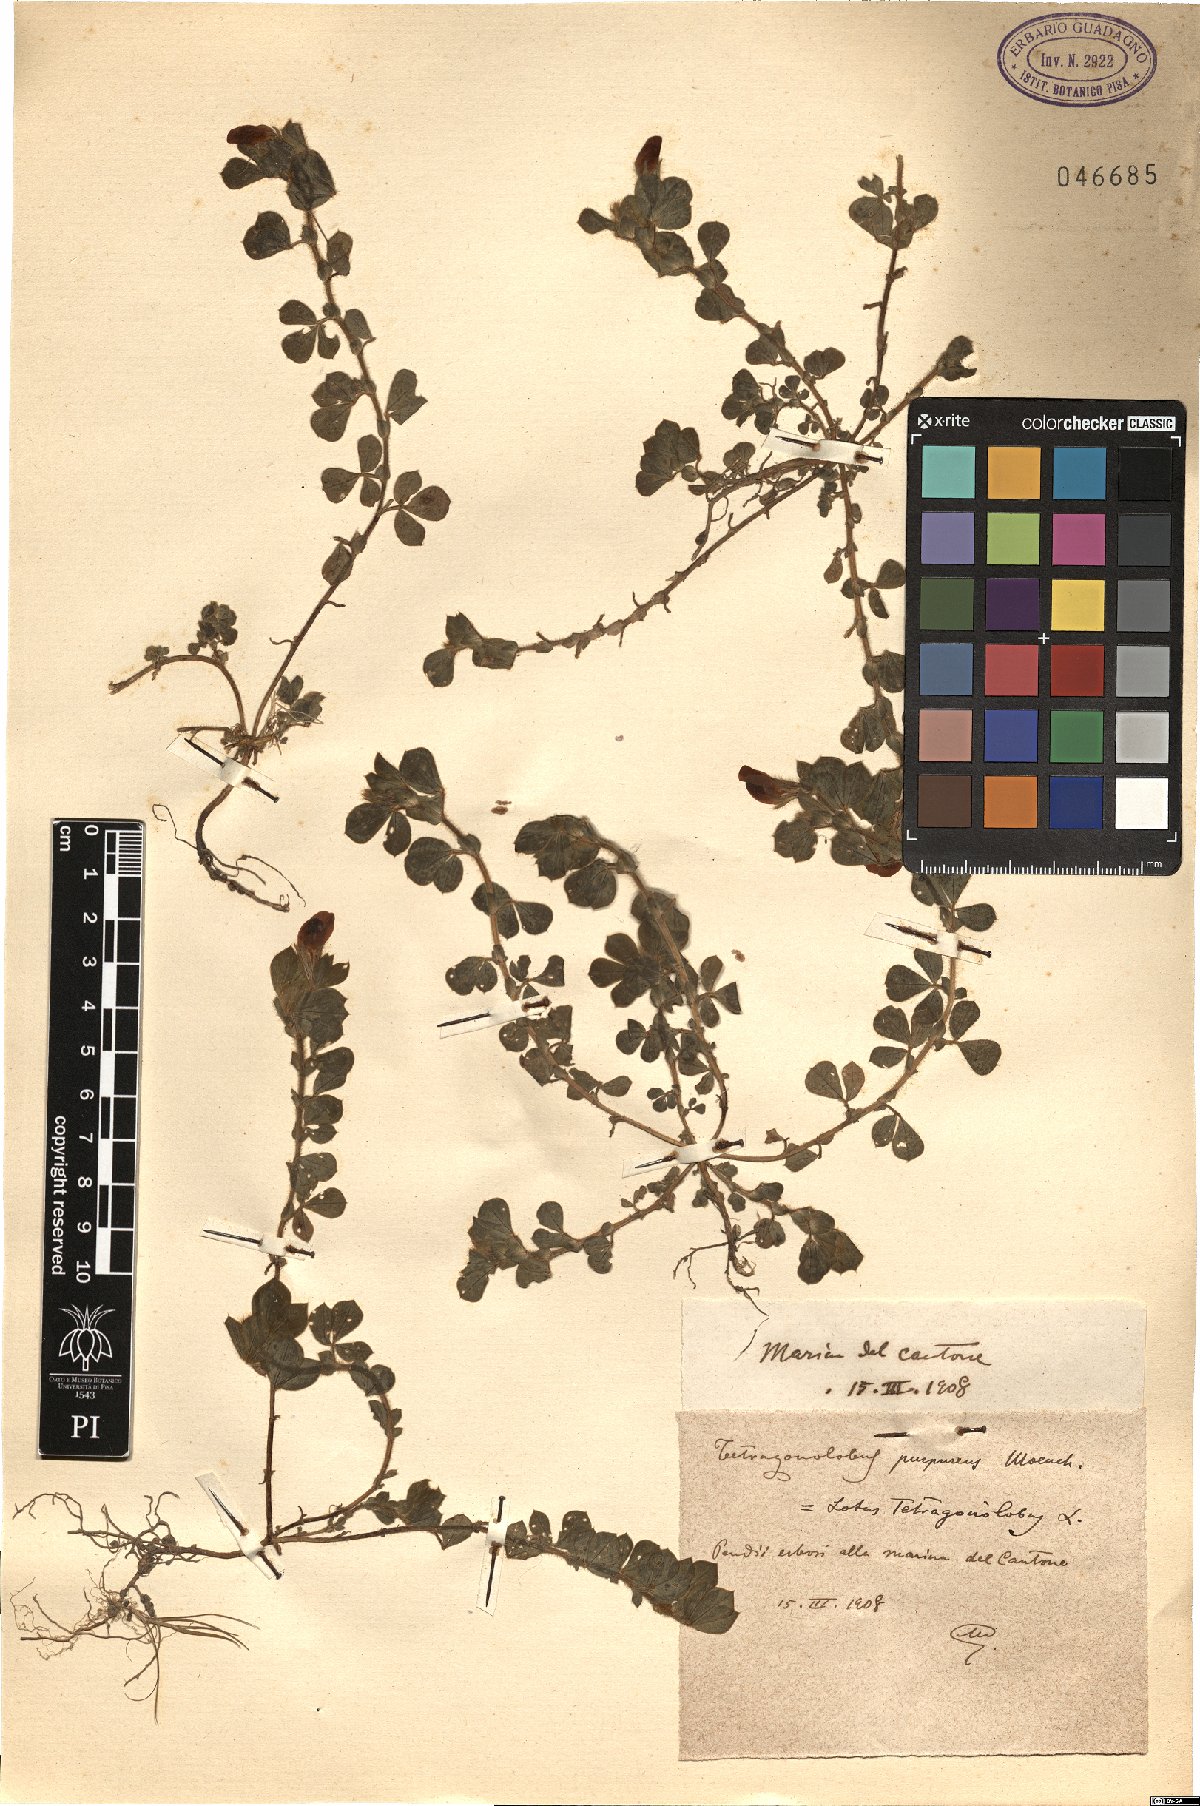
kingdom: Plantae
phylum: Tracheophyta
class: Magnoliopsida
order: Fabales
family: Fabaceae
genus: Lotus
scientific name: Lotus tetragonolobus
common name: Asparagus-pea
